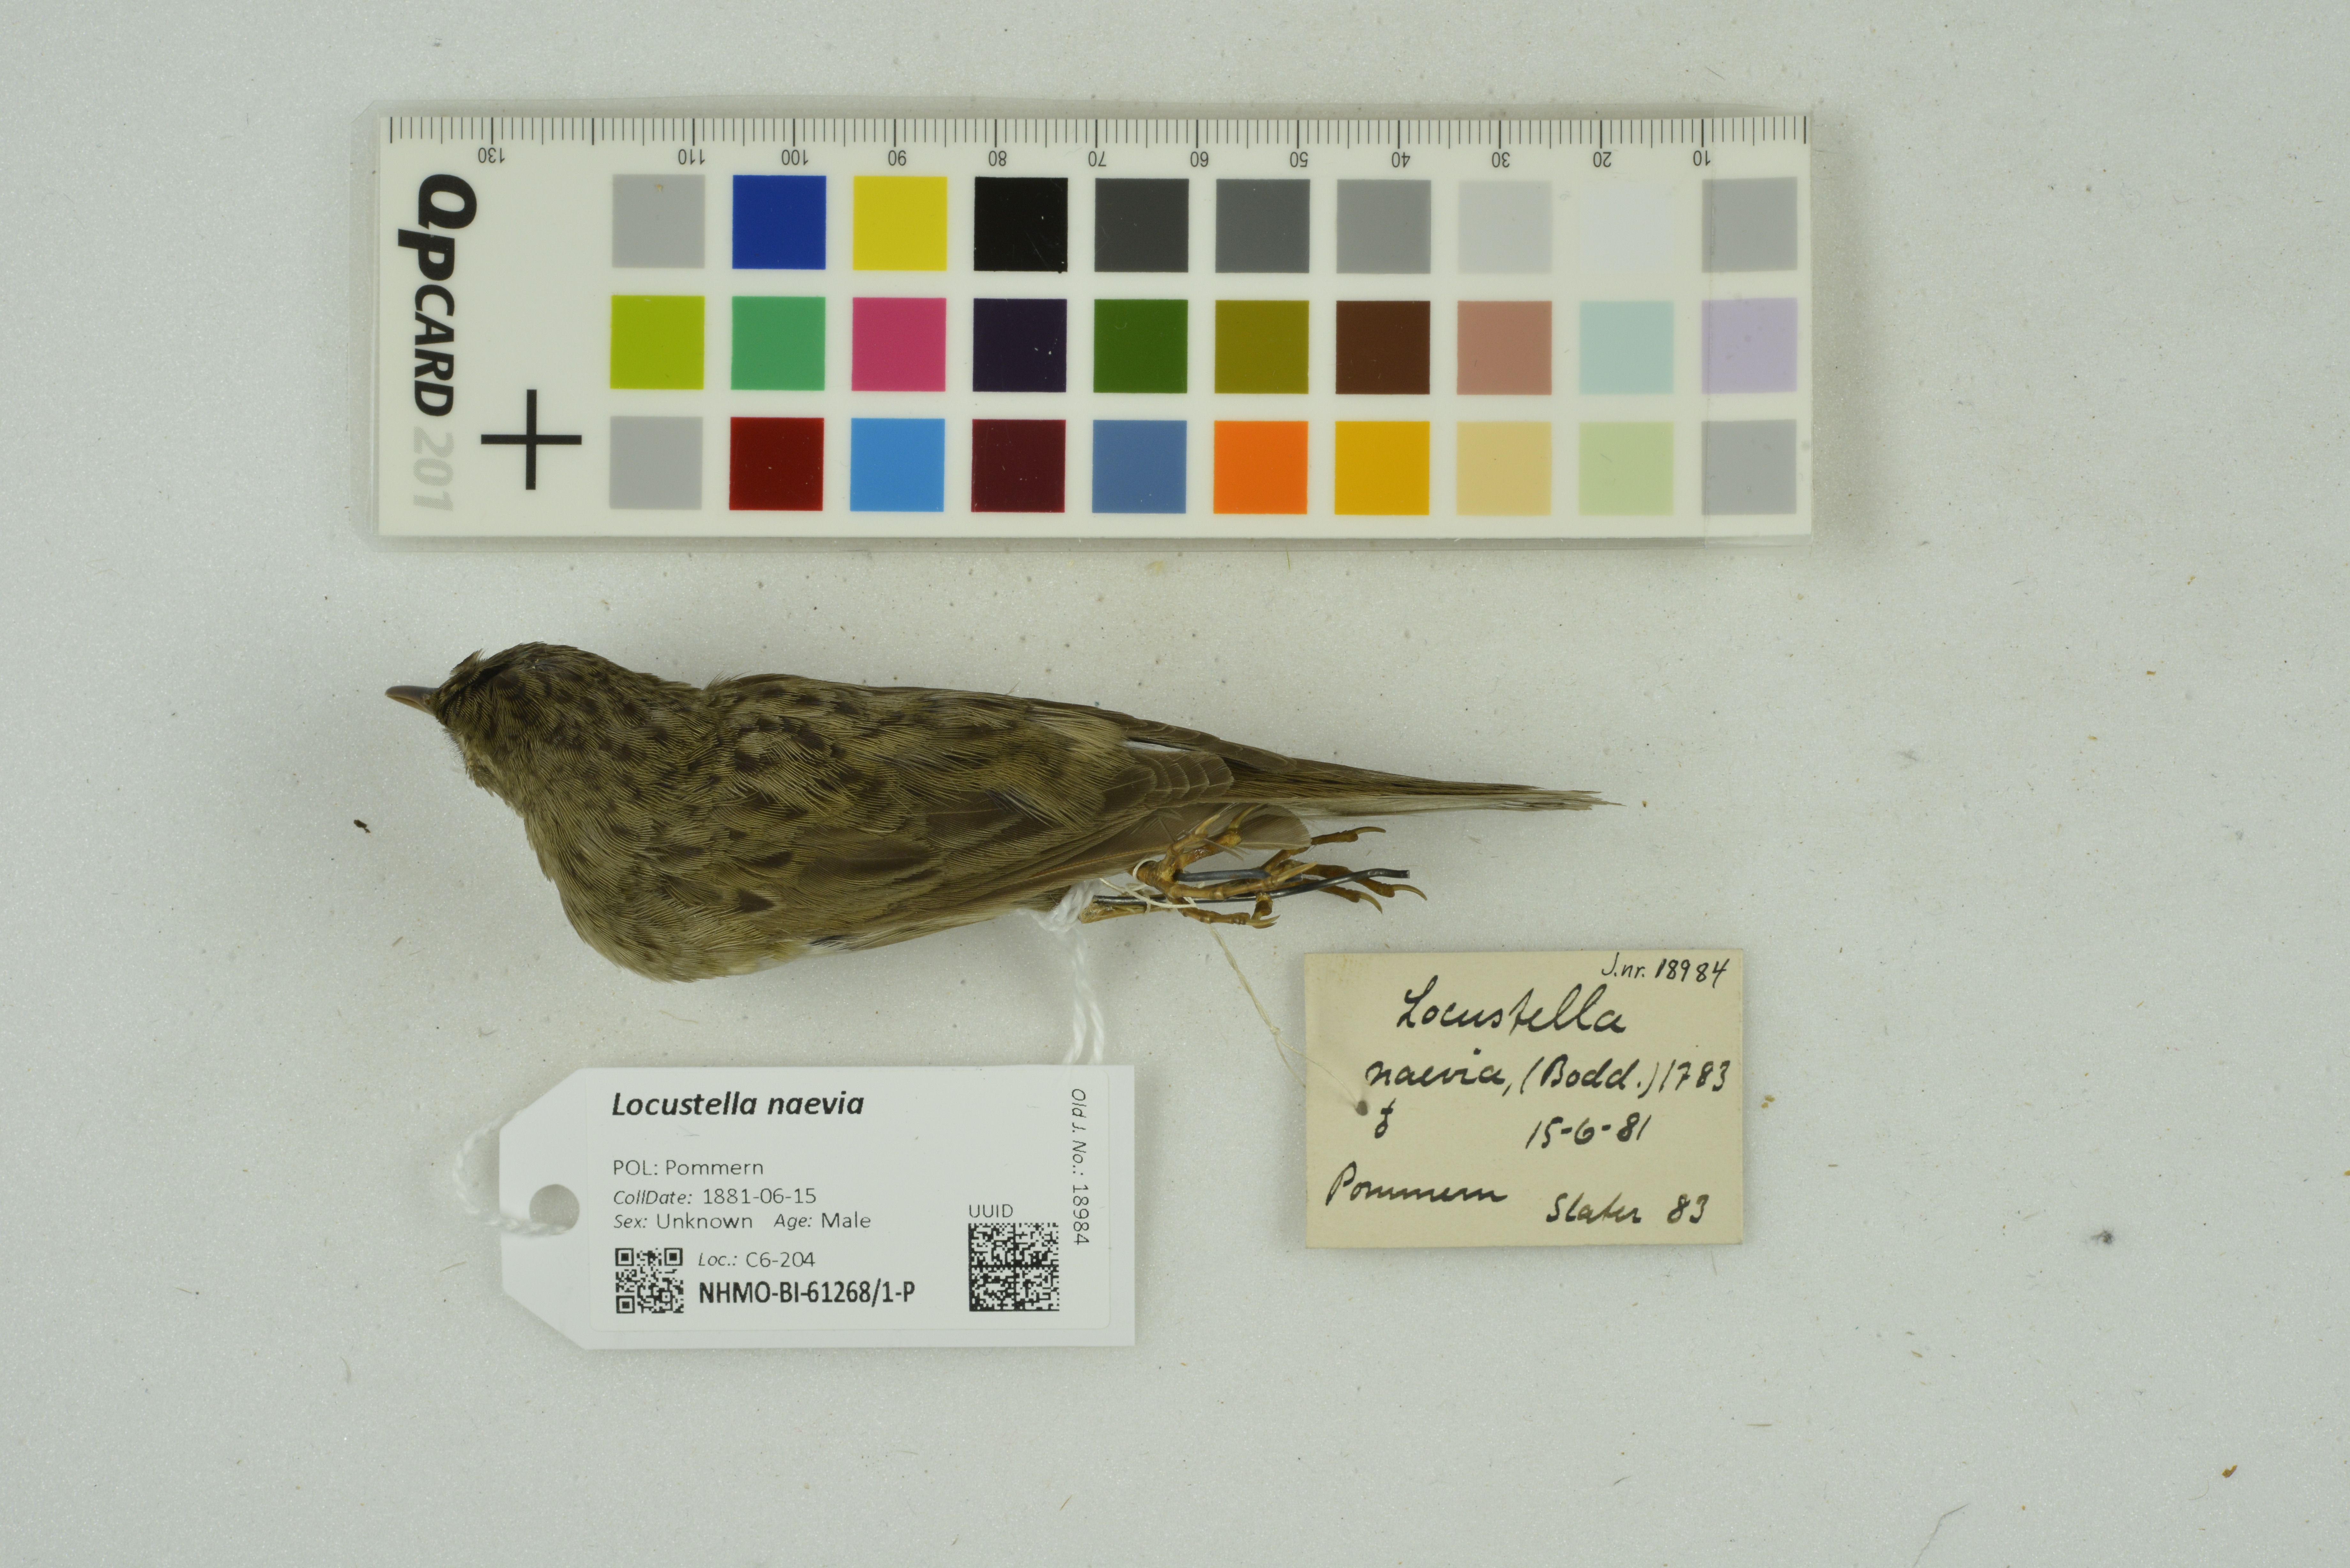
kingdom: Animalia
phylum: Chordata
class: Aves
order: Passeriformes
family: Locustellidae
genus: Locustella
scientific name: Locustella naevia
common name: Common grasshopper warbler
